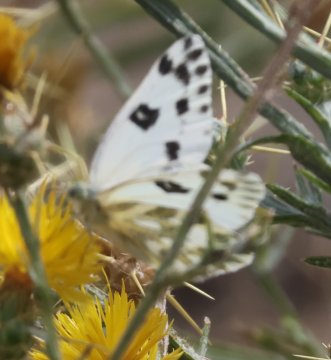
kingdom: Animalia
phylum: Arthropoda
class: Insecta
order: Lepidoptera
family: Pieridae
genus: Pontia
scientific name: Pontia beckerii
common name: Becker's White
